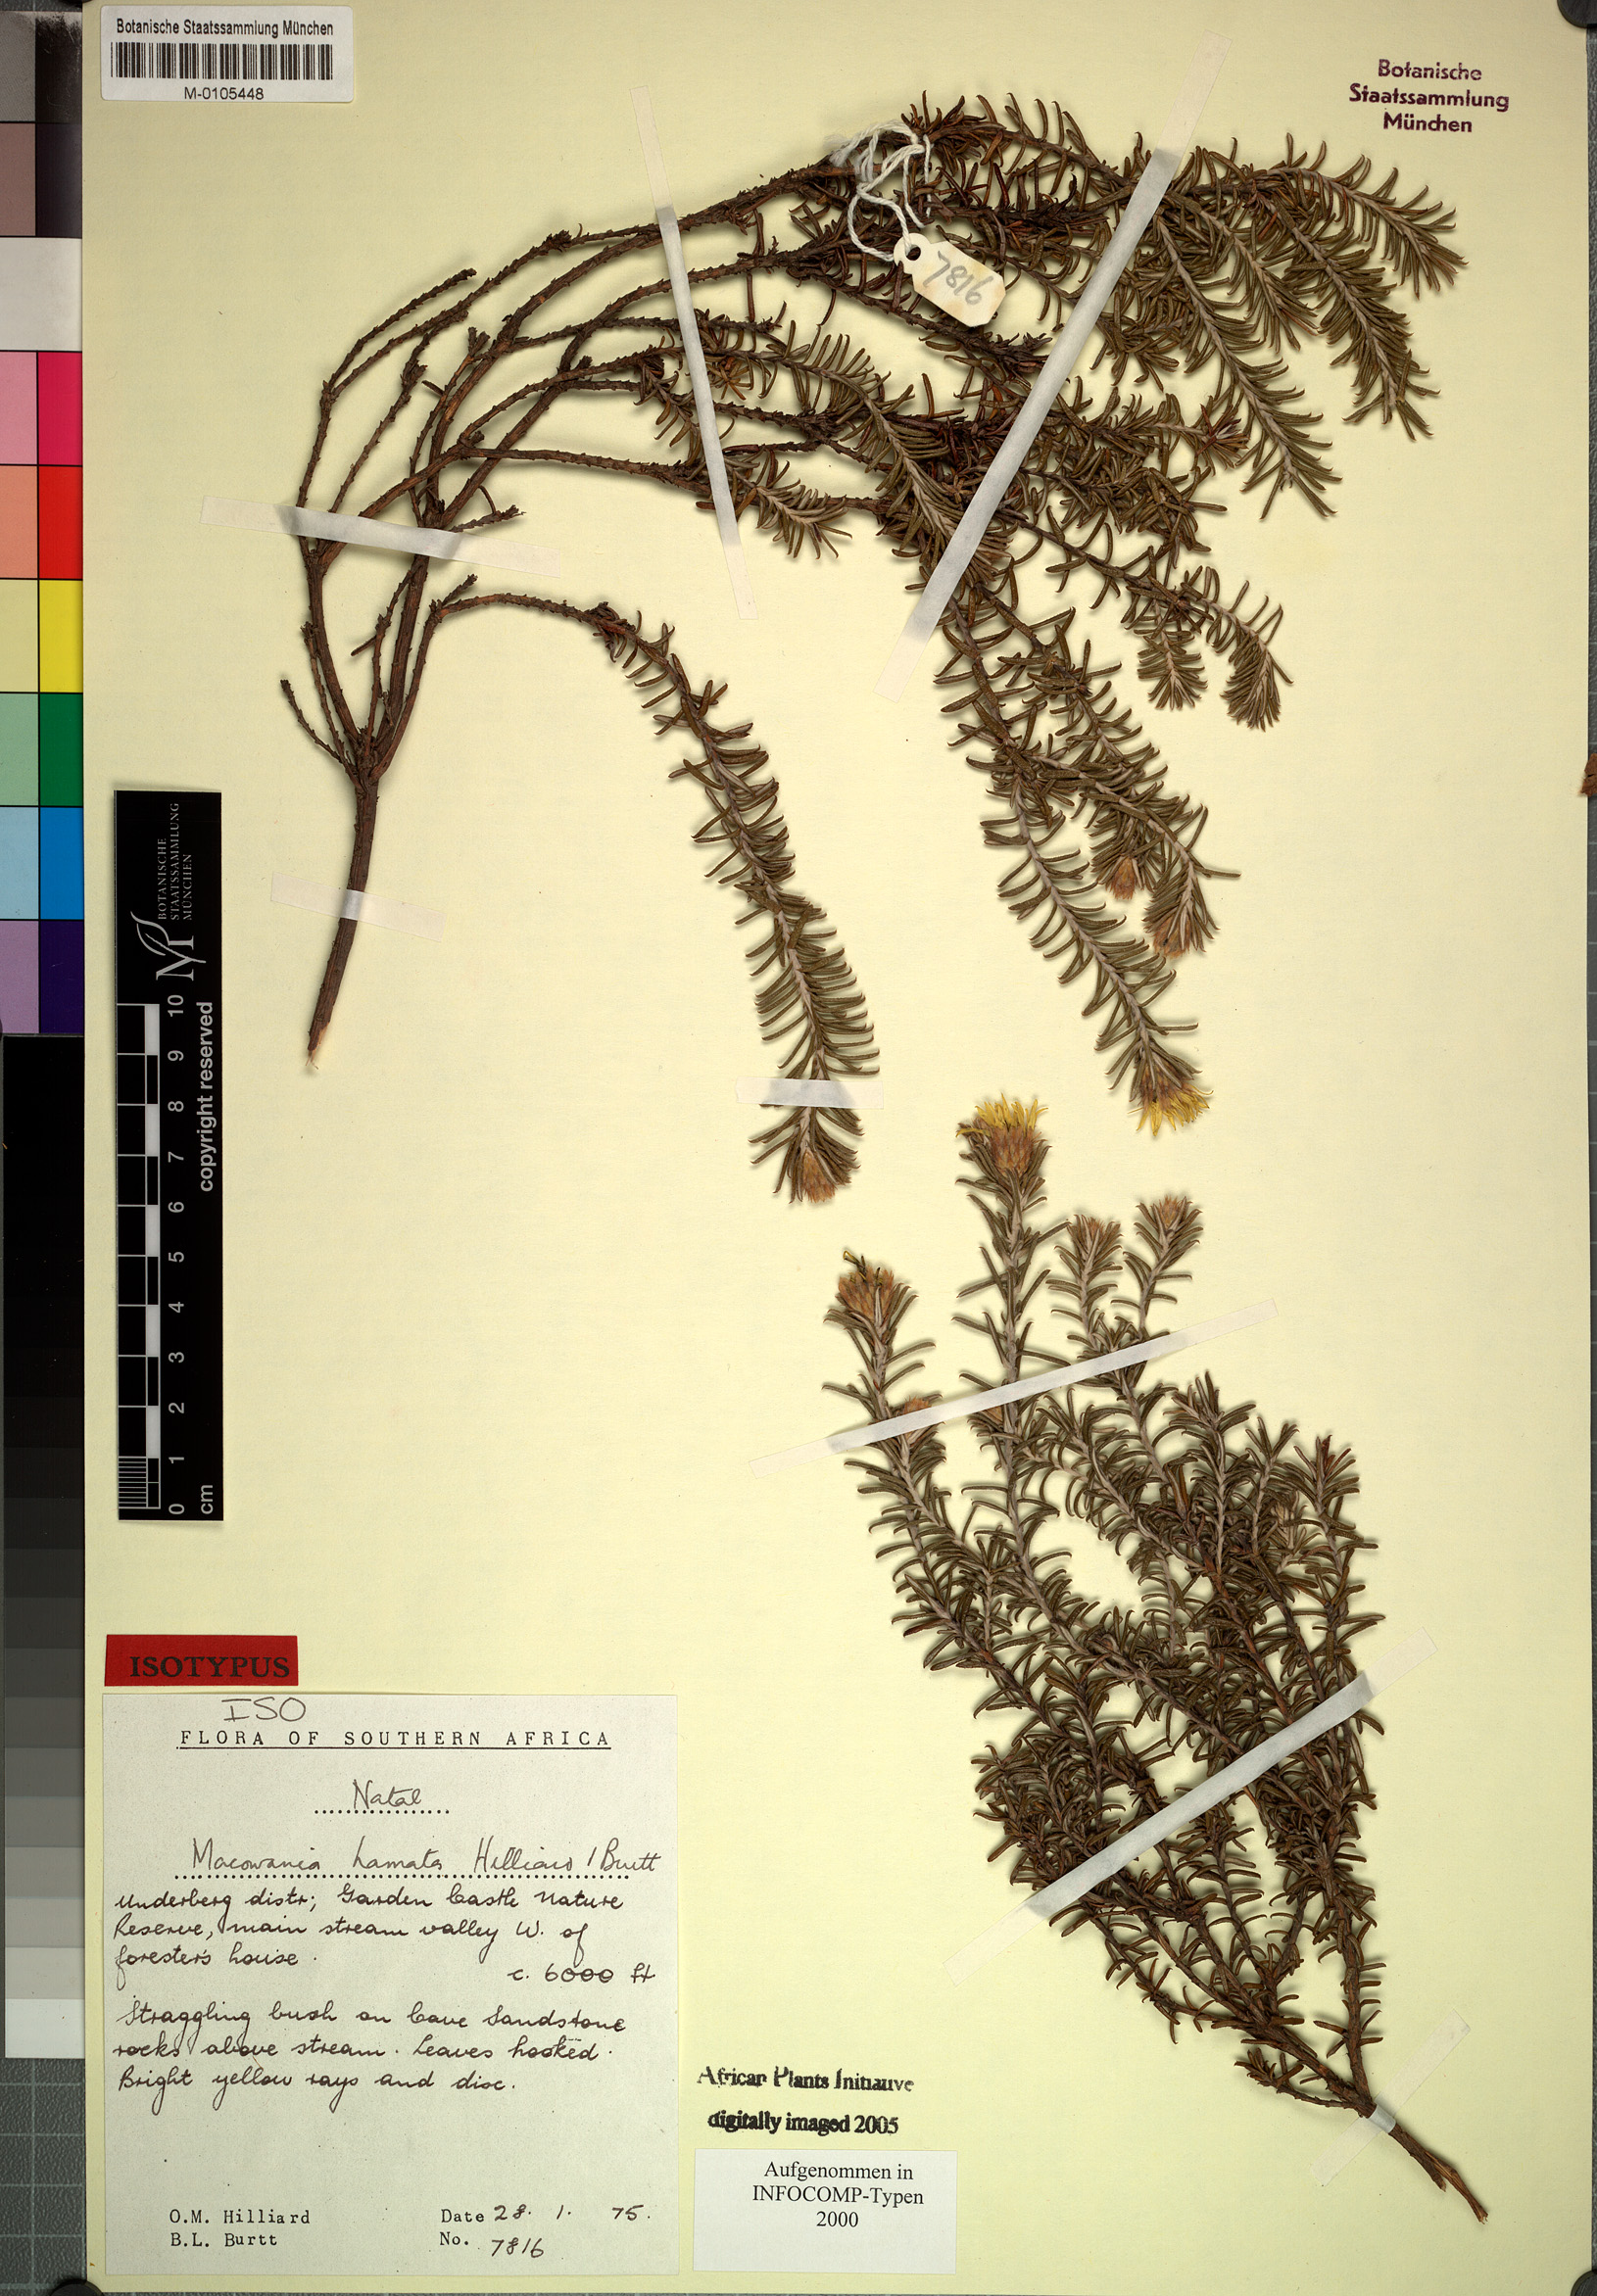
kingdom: Plantae
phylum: Tracheophyta
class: Magnoliopsida
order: Asterales
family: Asteraceae
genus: Arrowsmithia
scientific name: Arrowsmithia hamata
